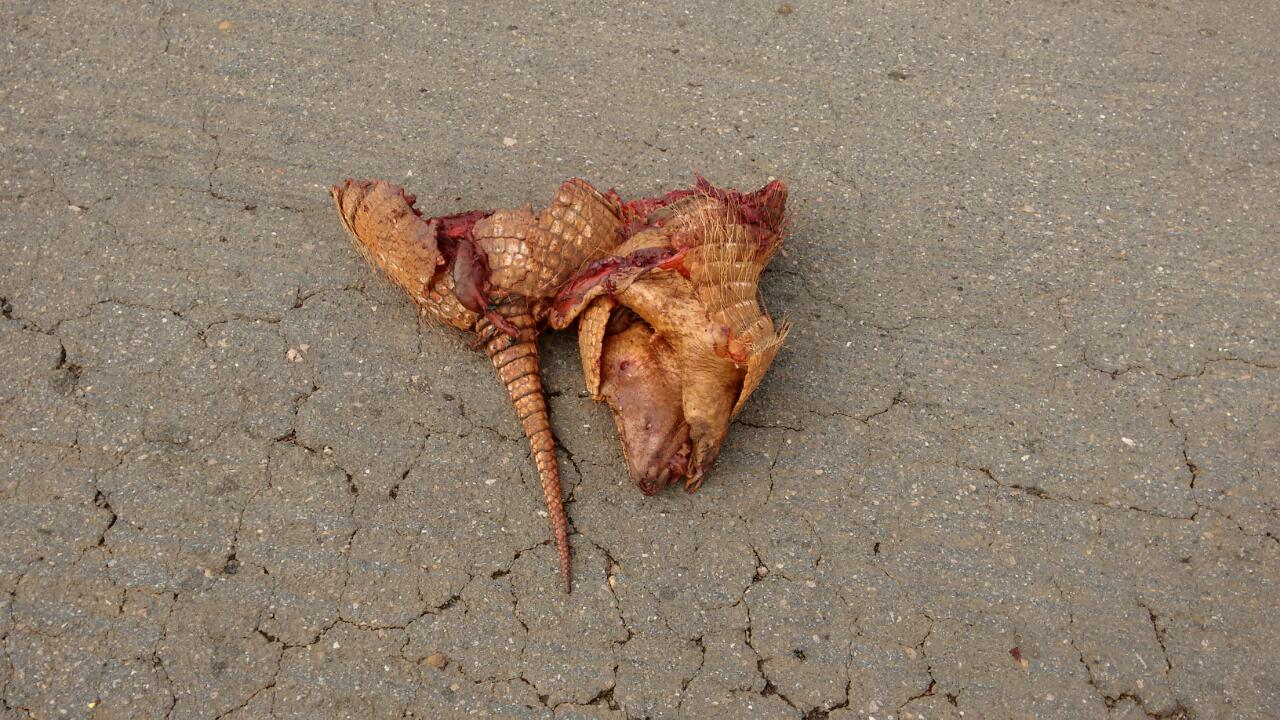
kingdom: Animalia
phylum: Chordata
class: Mammalia
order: Cingulata
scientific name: Cingulata
